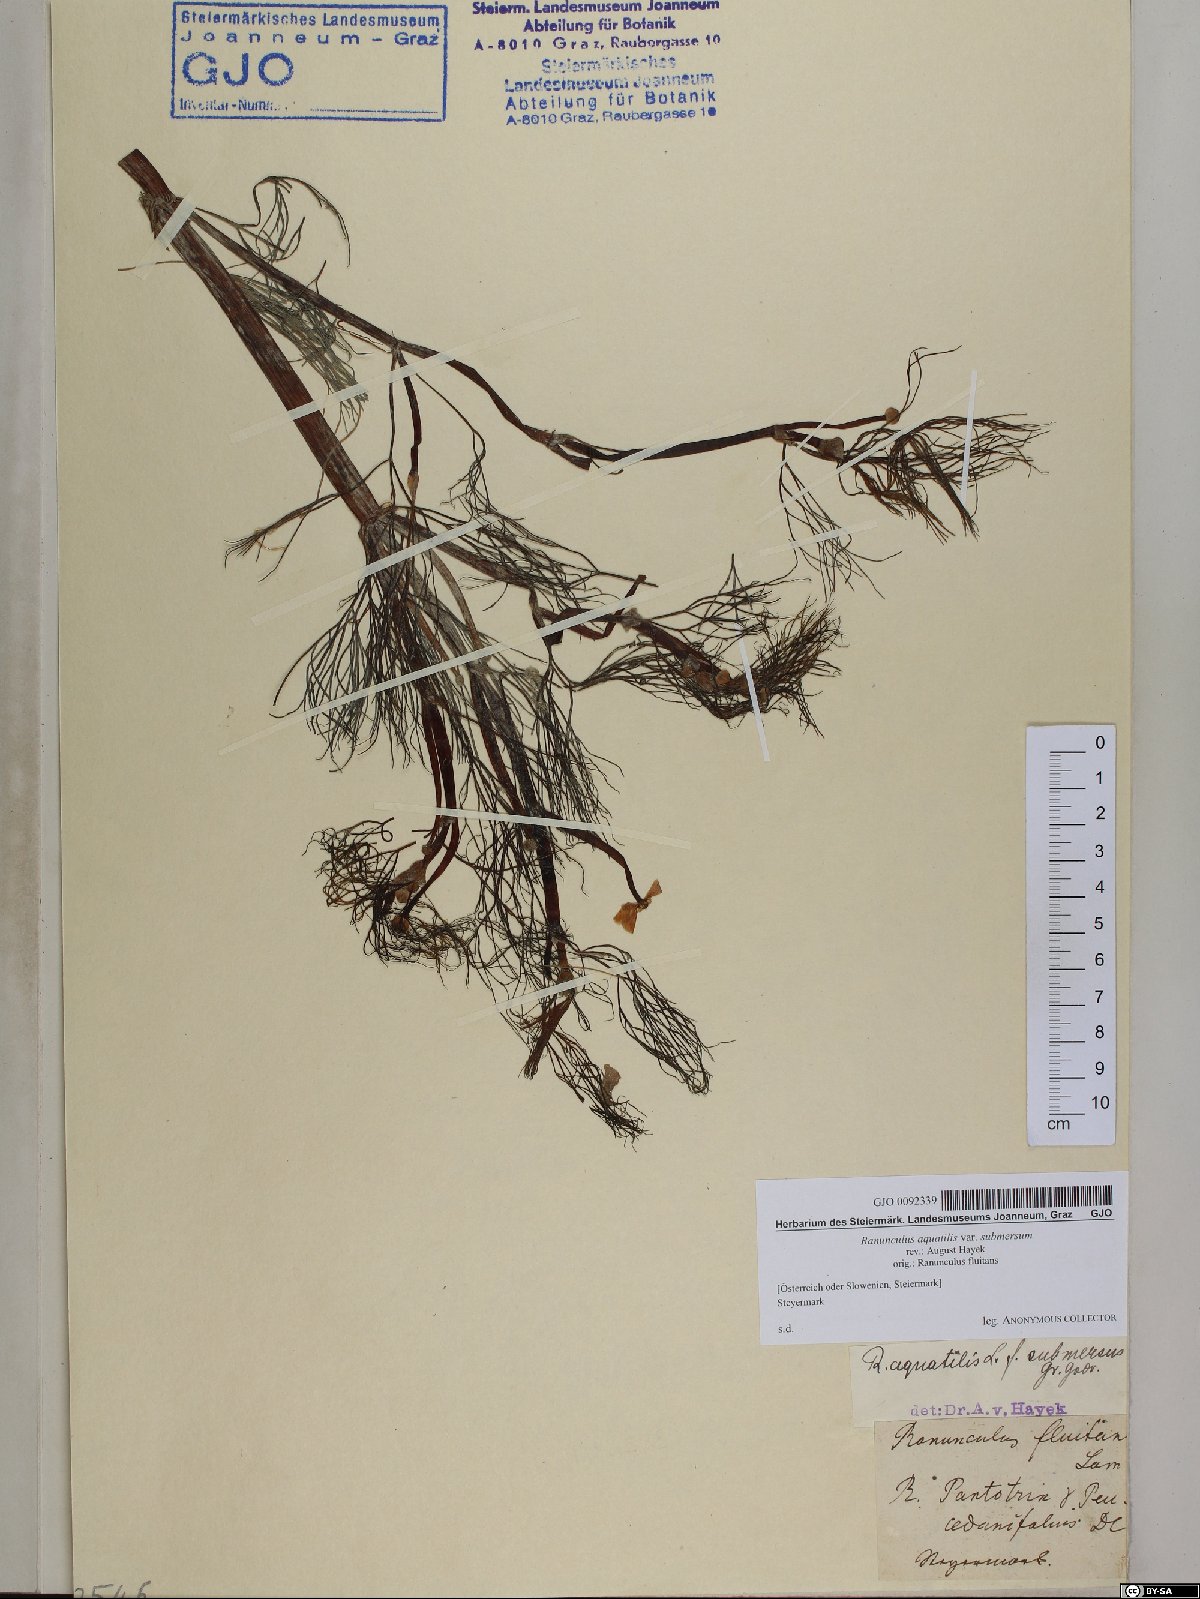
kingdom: Plantae
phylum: Tracheophyta
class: Magnoliopsida
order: Ranunculales
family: Ranunculaceae
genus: Ranunculus
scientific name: Ranunculus aquatilis
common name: Common water-crowfoot
